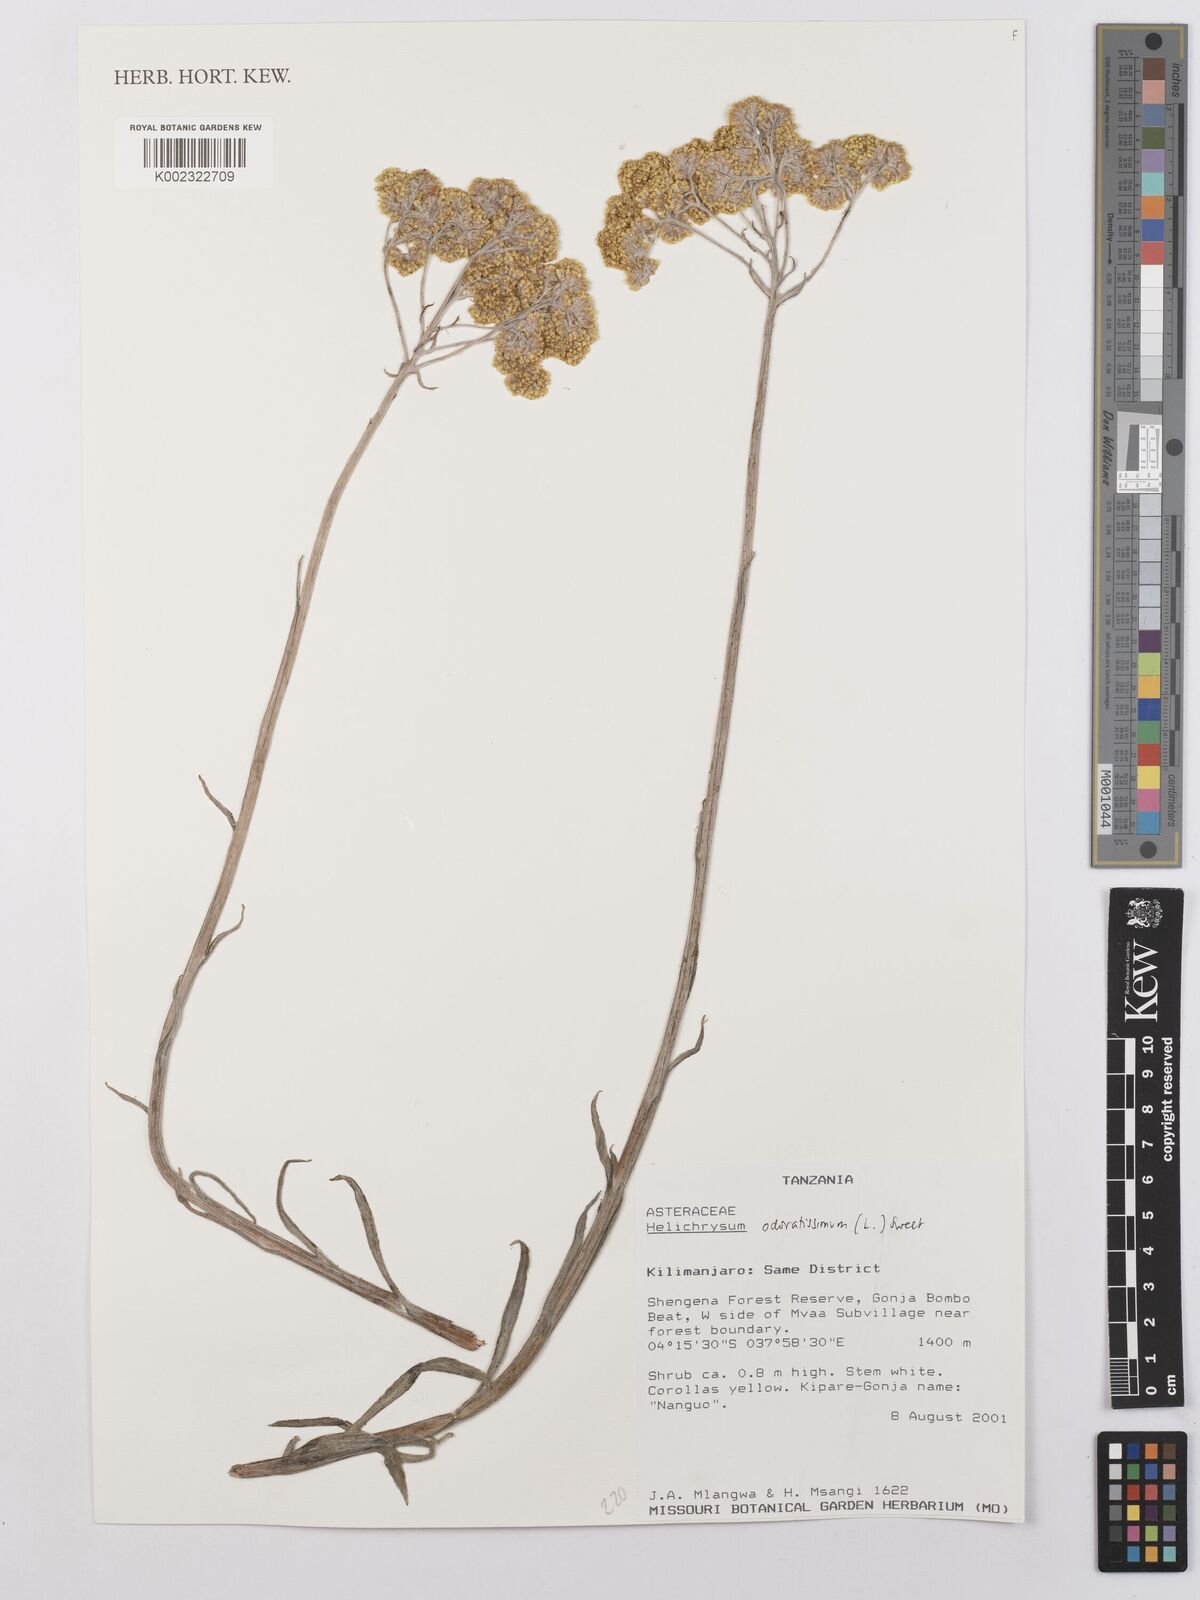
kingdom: Plantae
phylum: Tracheophyta
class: Magnoliopsida
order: Asterales
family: Asteraceae
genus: Helichrysum
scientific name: Helichrysum odoratissimum
